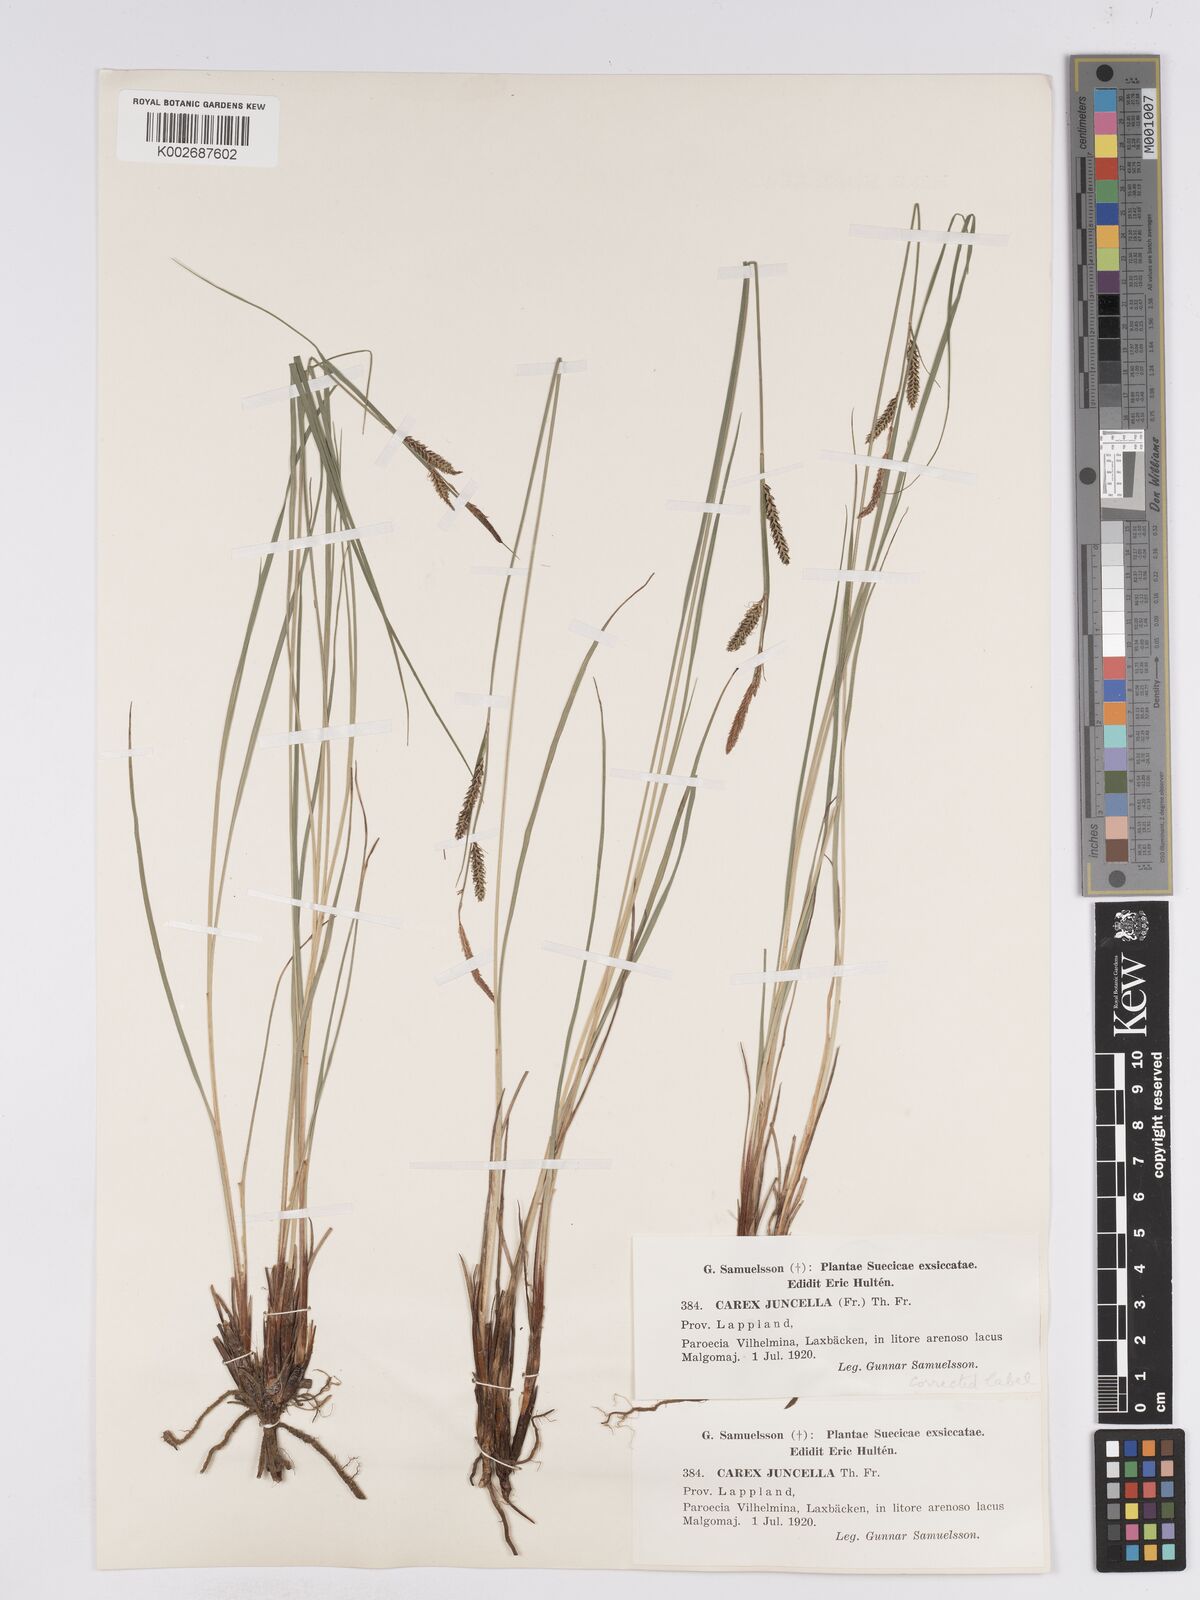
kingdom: Plantae
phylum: Tracheophyta
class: Liliopsida
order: Poales
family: Cyperaceae
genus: Carex
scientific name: Carex
